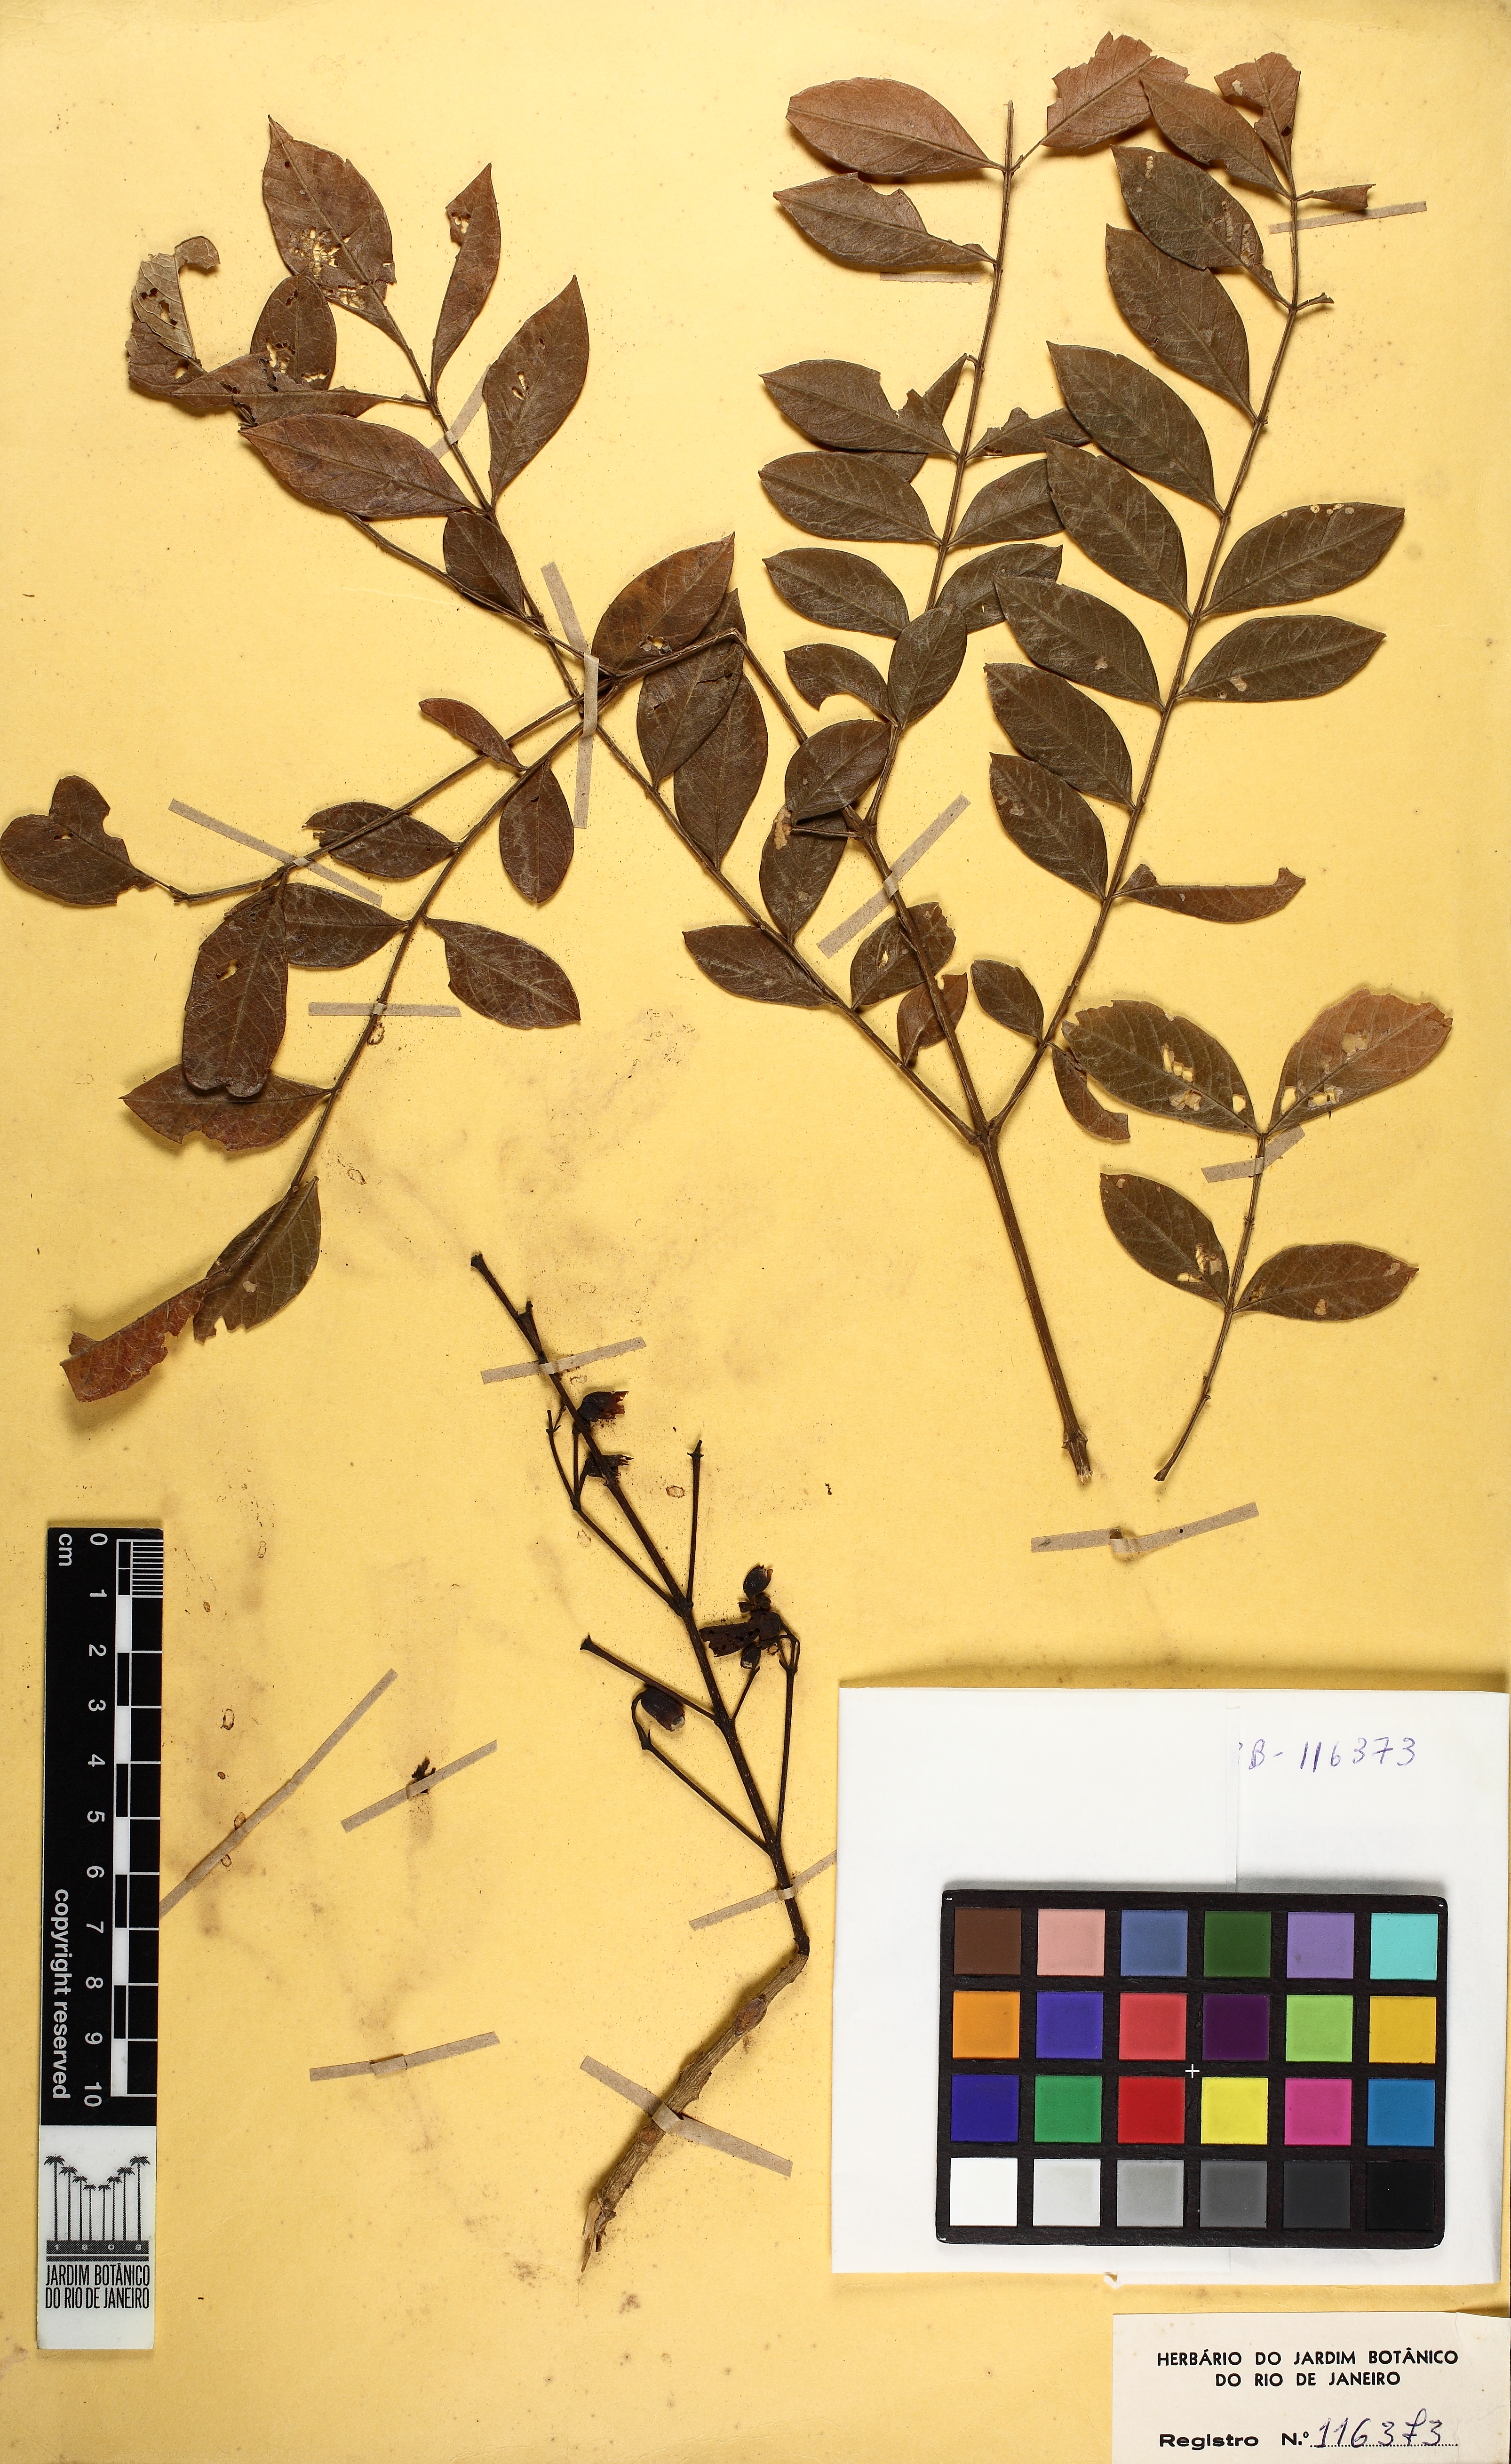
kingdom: Plantae
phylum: Tracheophyta
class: Magnoliopsida
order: Lamiales
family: Bignoniaceae
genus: Jacaranda
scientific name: Jacaranda caroba
